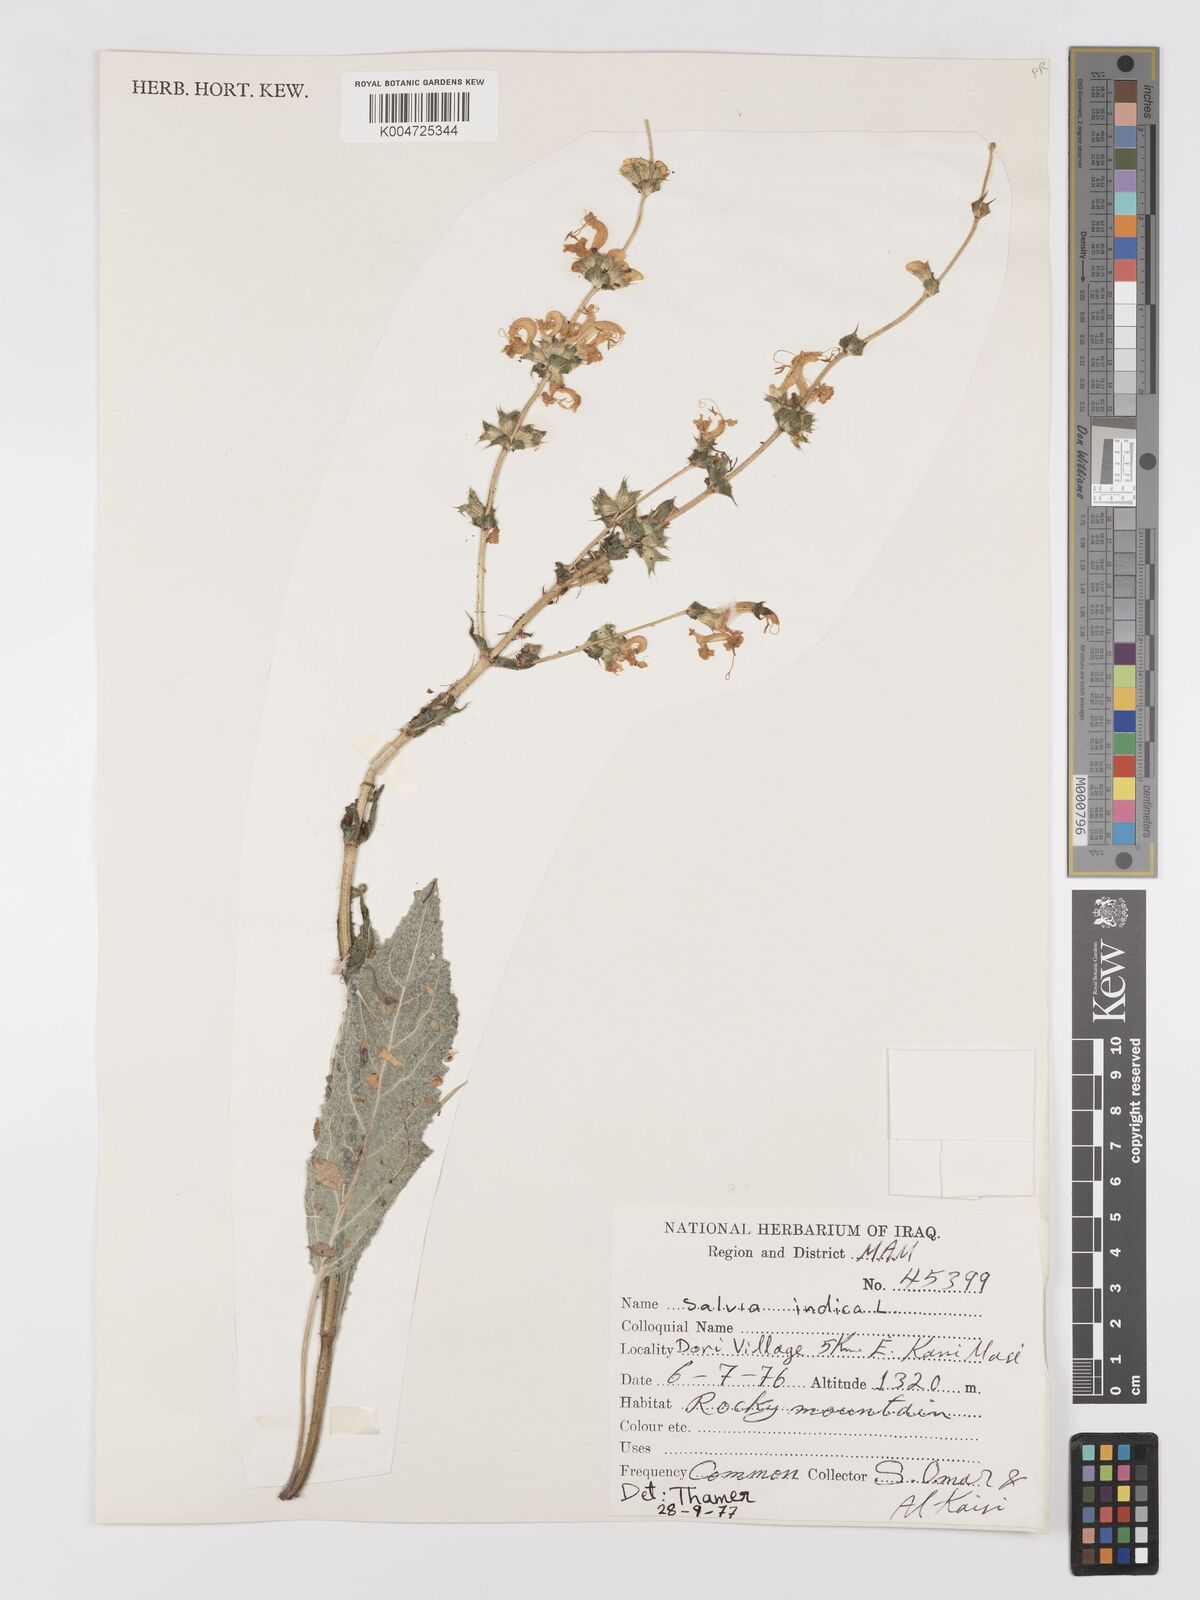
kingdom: Plantae
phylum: Tracheophyta
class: Magnoliopsida
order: Lamiales
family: Lamiaceae
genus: Salvia
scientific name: Salvia indica
